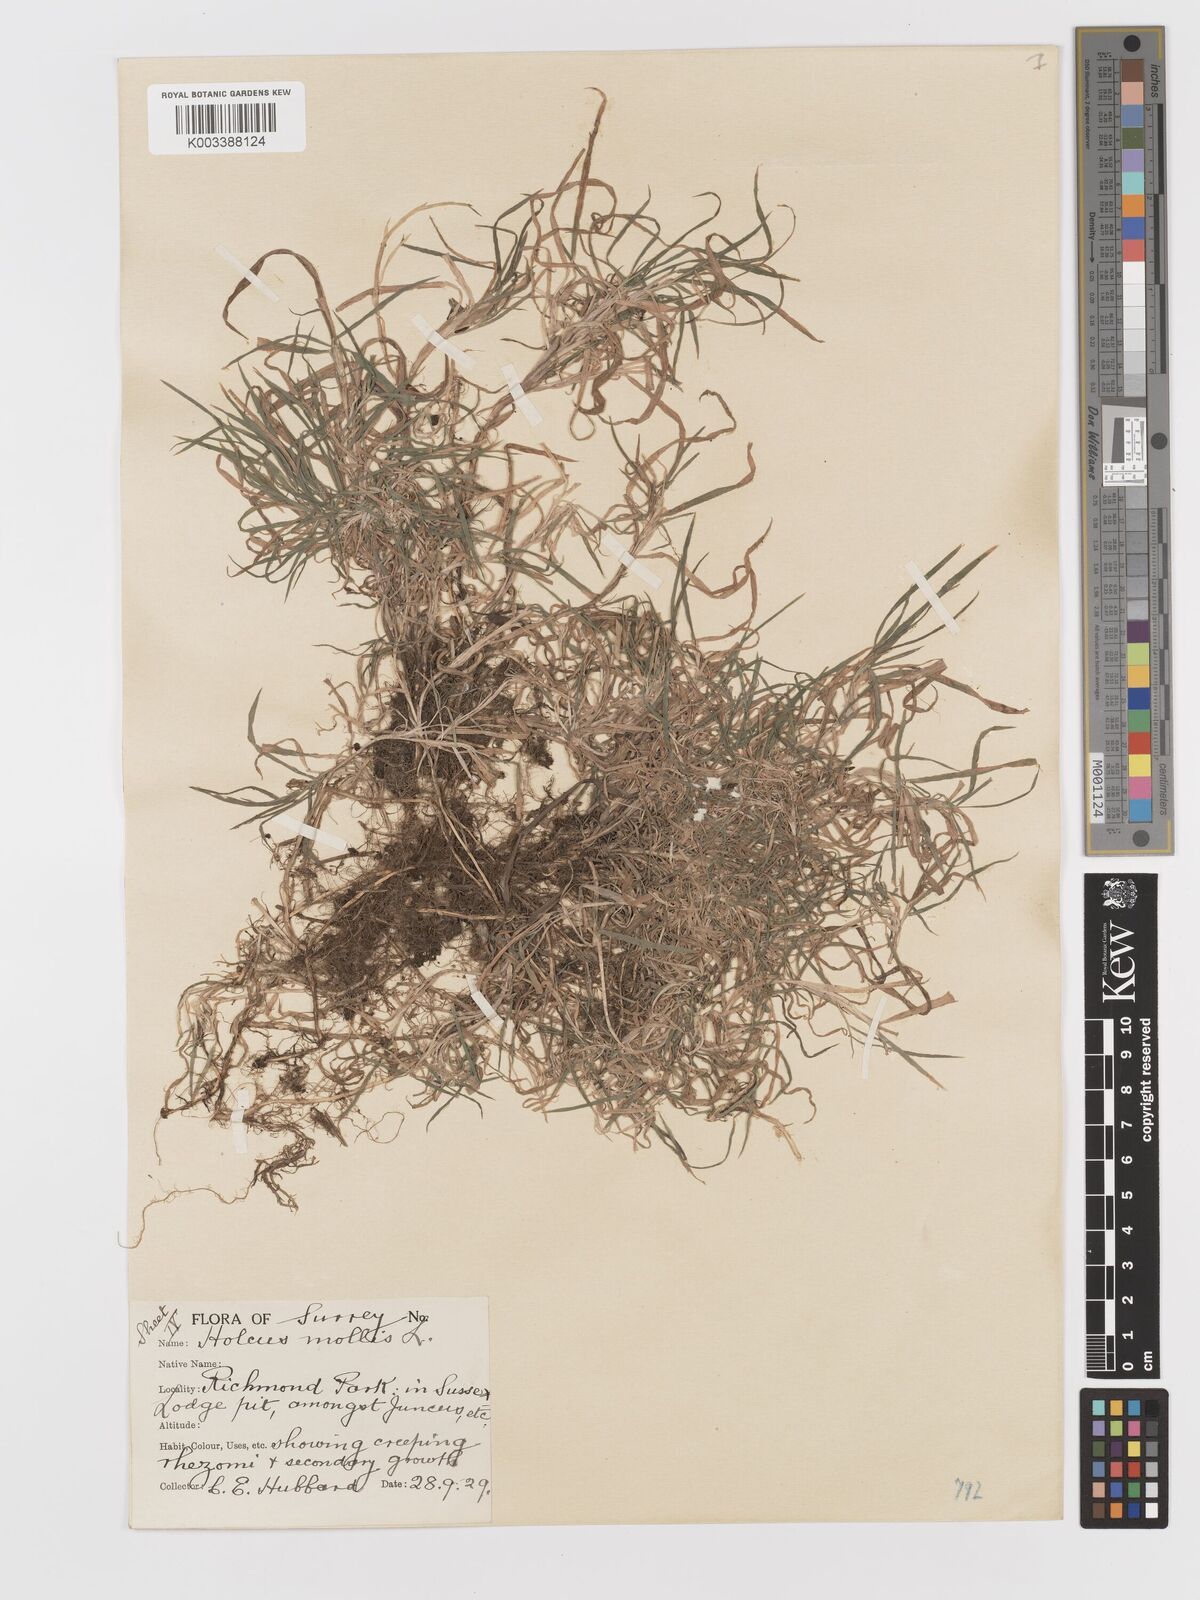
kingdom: Plantae
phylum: Tracheophyta
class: Liliopsida
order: Poales
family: Poaceae
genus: Holcus
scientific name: Holcus mollis
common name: Creeping velvetgrass
